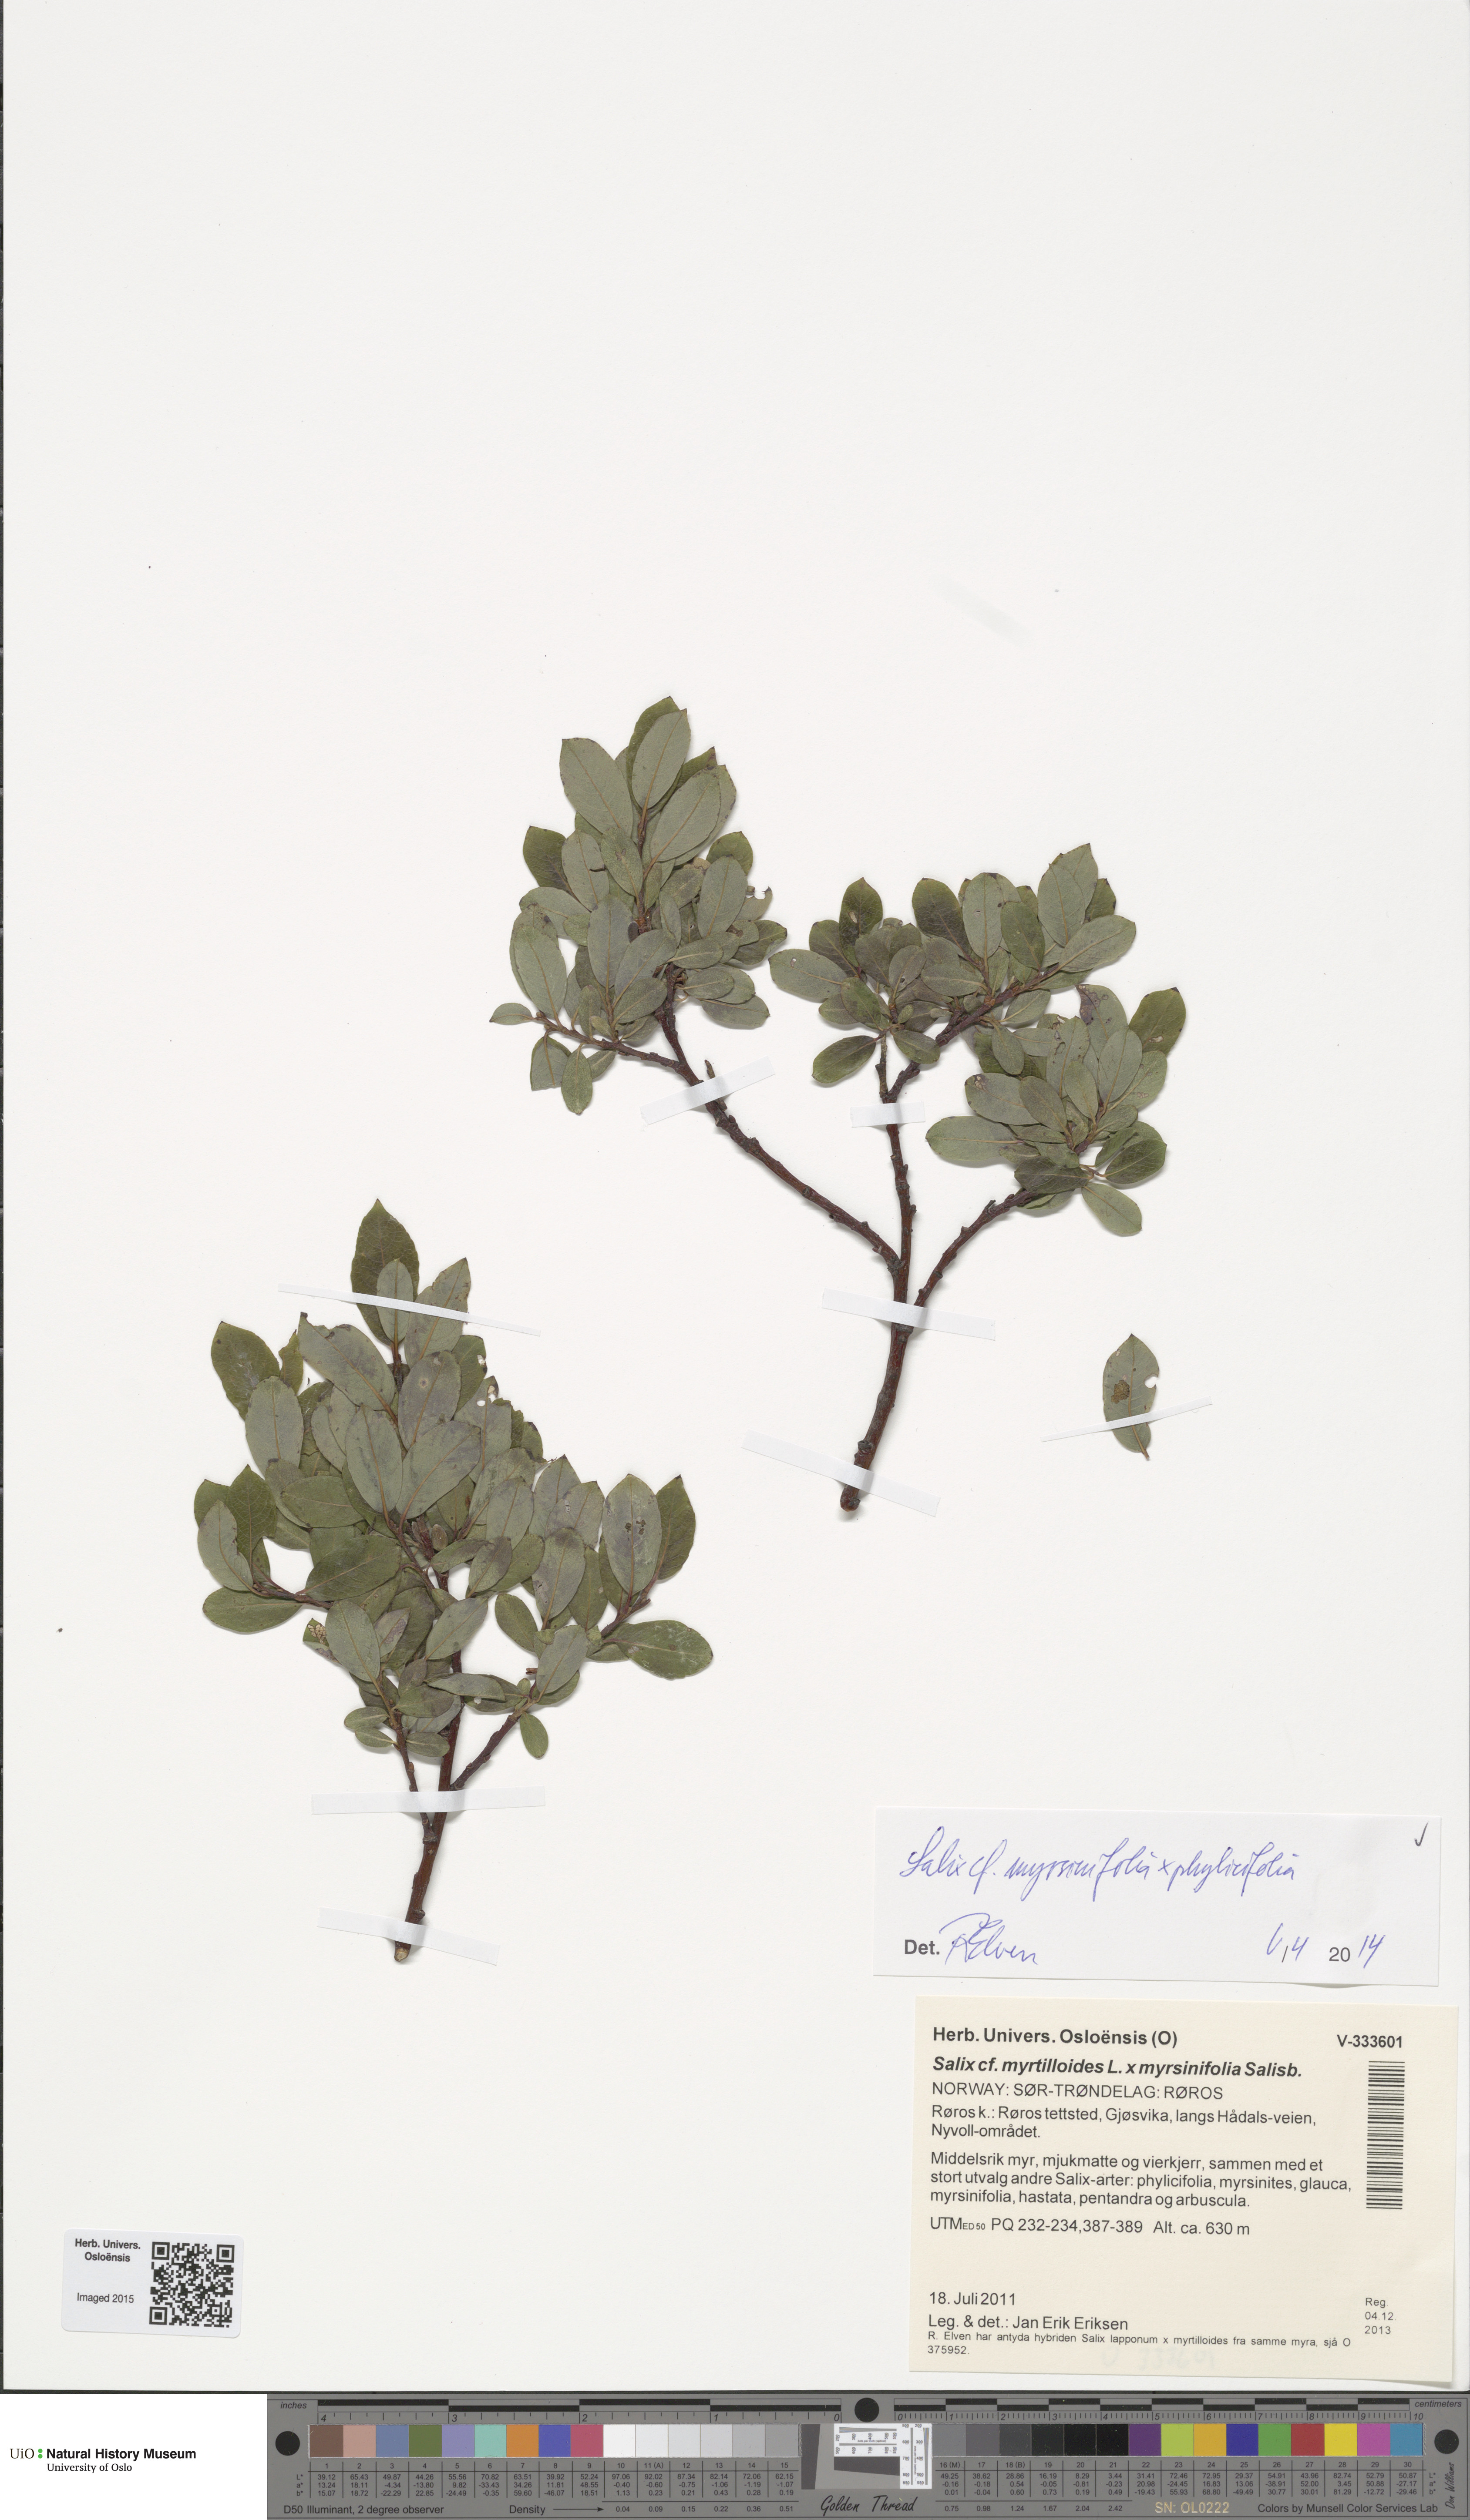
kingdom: Plantae
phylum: Tracheophyta
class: Magnoliopsida
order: Malpighiales
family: Salicaceae
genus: Salix
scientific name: Salix
